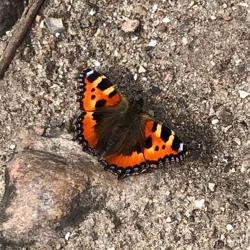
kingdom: Animalia
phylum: Arthropoda
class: Insecta
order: Lepidoptera
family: Nymphalidae
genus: Aglais
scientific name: Aglais urticae
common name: Nældens takvinge
